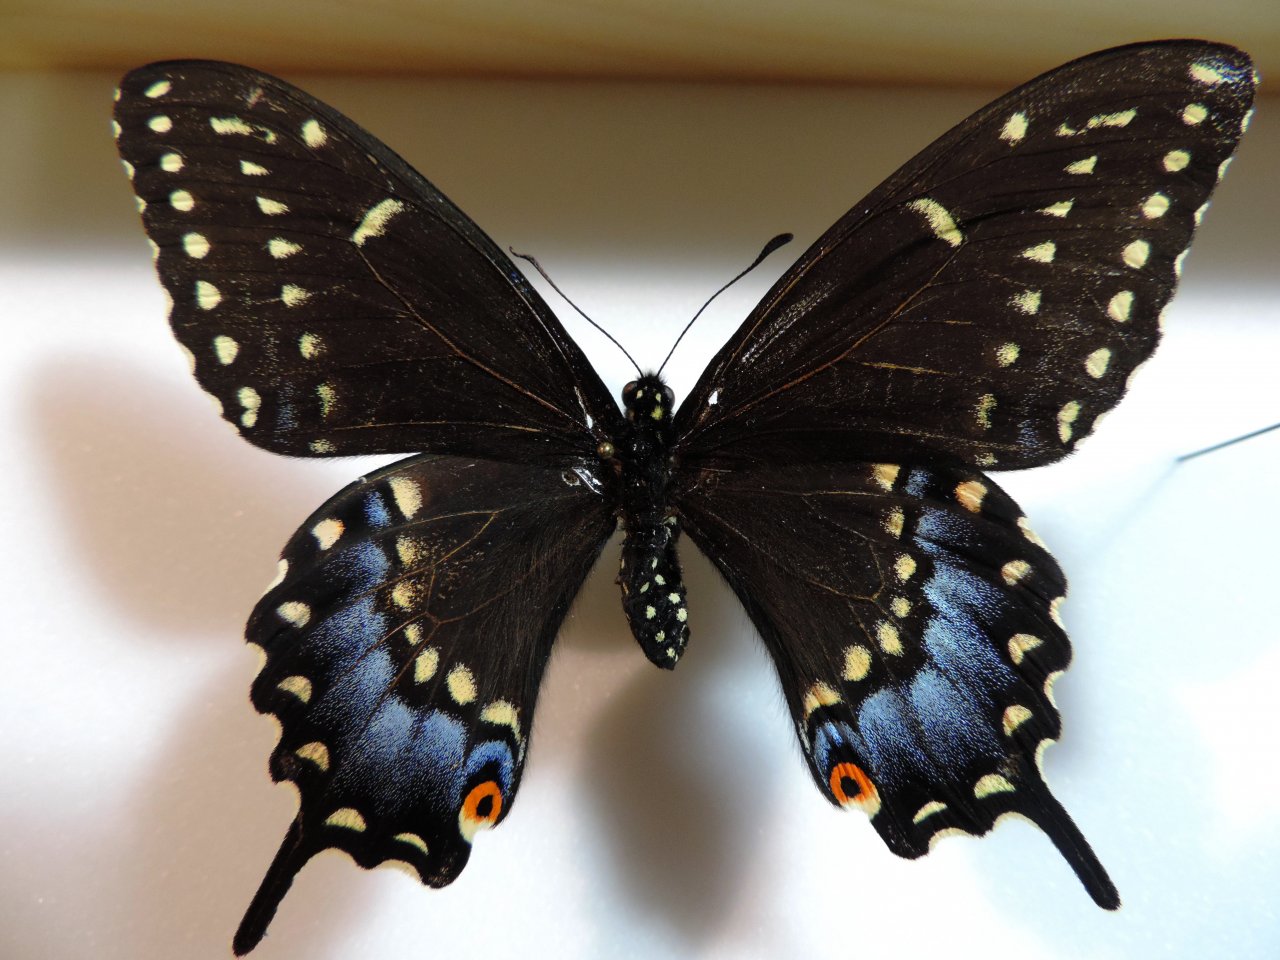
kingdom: Animalia
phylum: Arthropoda
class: Insecta
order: Lepidoptera
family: Papilionidae
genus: Papilio
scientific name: Papilio polyxenes
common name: Black Swallowtail
